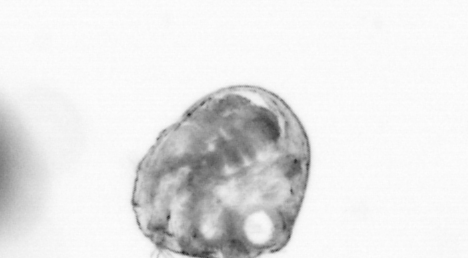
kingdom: Animalia
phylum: Arthropoda
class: Copepoda
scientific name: Copepoda
